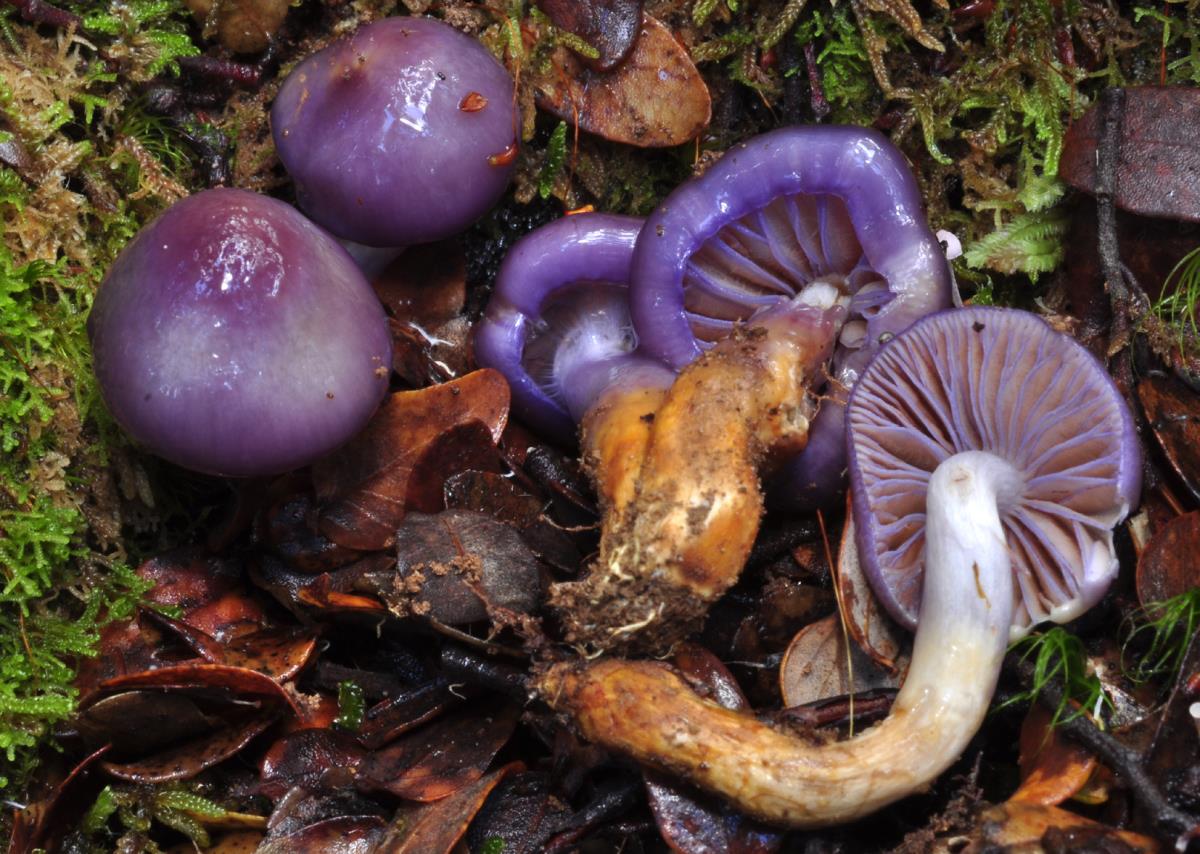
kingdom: Fungi
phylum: Basidiomycota
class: Agaricomycetes
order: Agaricales
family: Cortinariaceae
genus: Cortinarius
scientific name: Cortinarius
